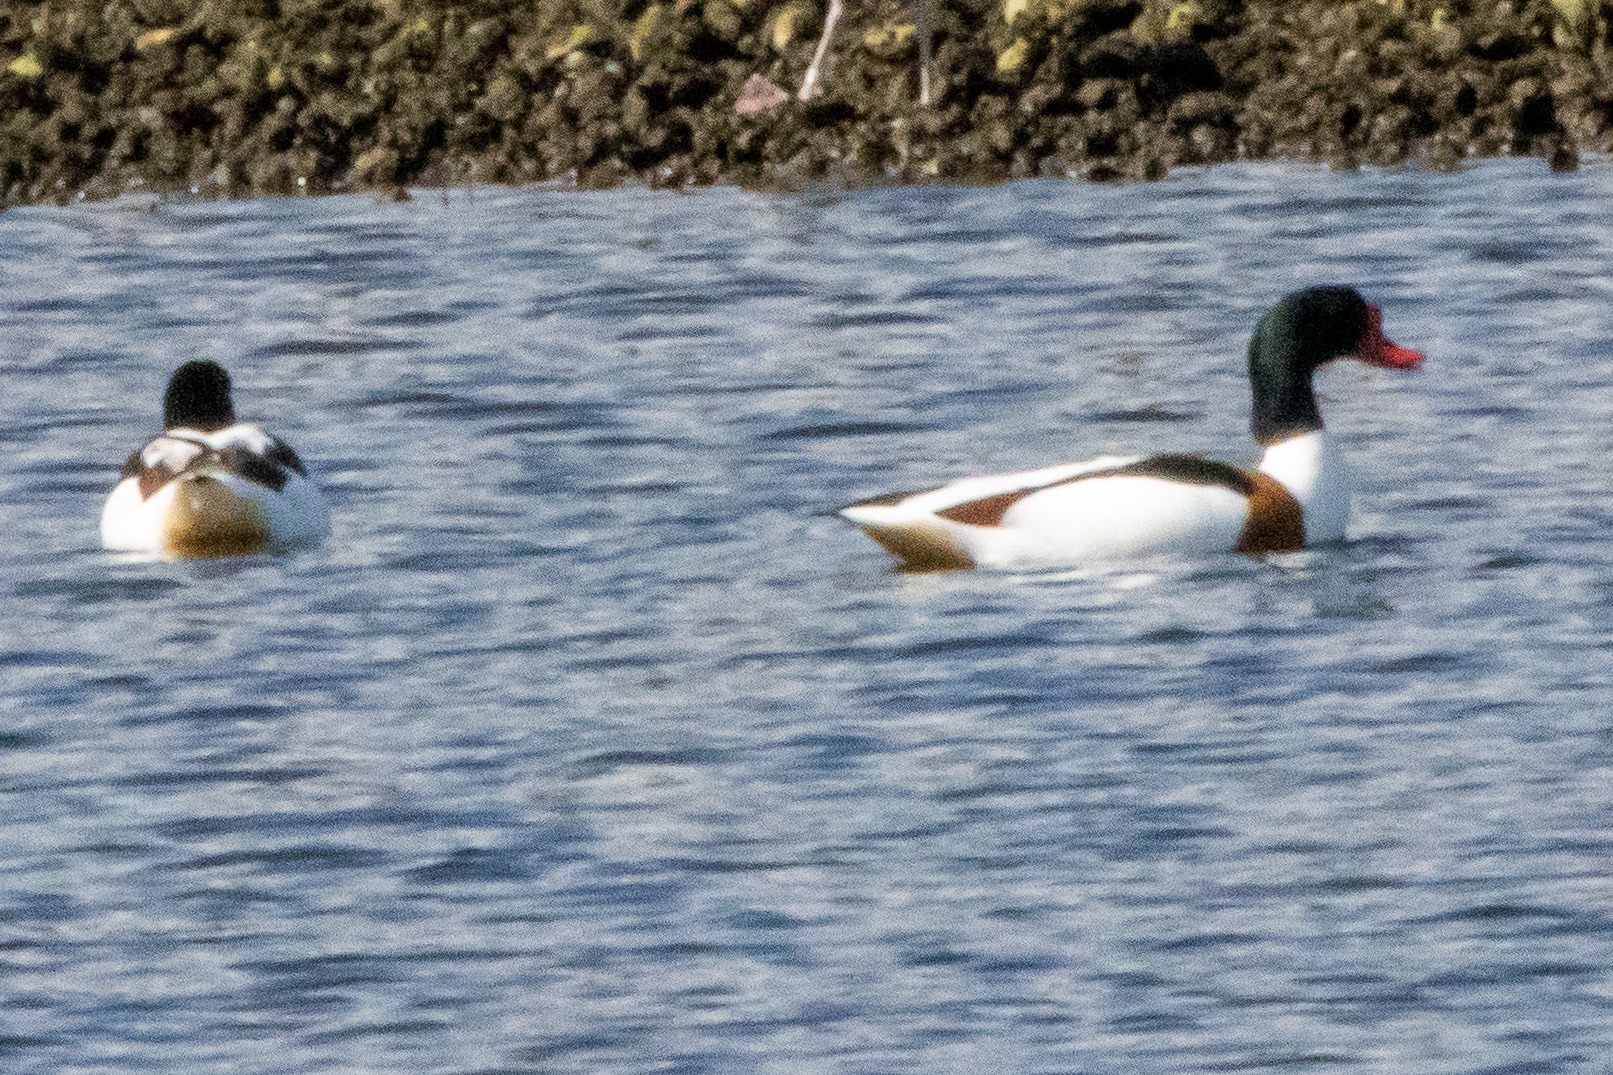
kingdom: Animalia
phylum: Chordata
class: Aves
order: Anseriformes
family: Anatidae
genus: Tadorna
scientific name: Tadorna tadorna
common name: Gravand
